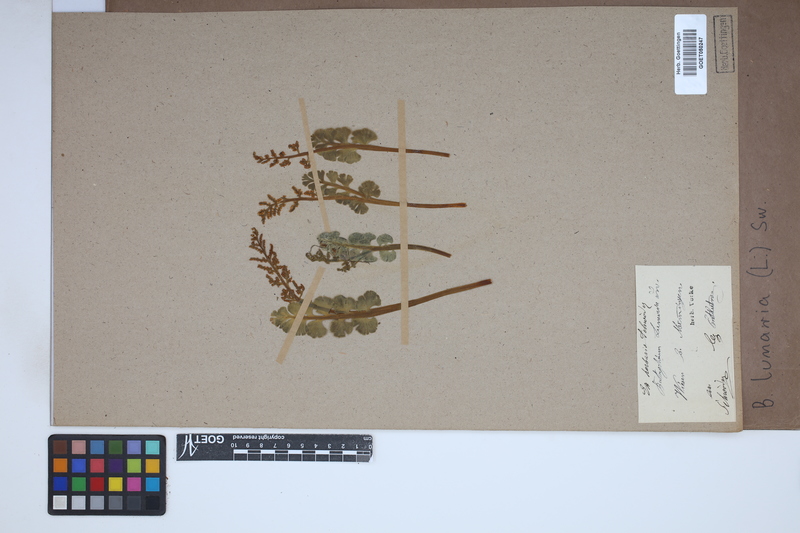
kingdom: Plantae
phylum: Tracheophyta
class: Polypodiopsida
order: Ophioglossales
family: Ophioglossaceae
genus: Botrychium
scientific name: Botrychium lunaria
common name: Moonwort
